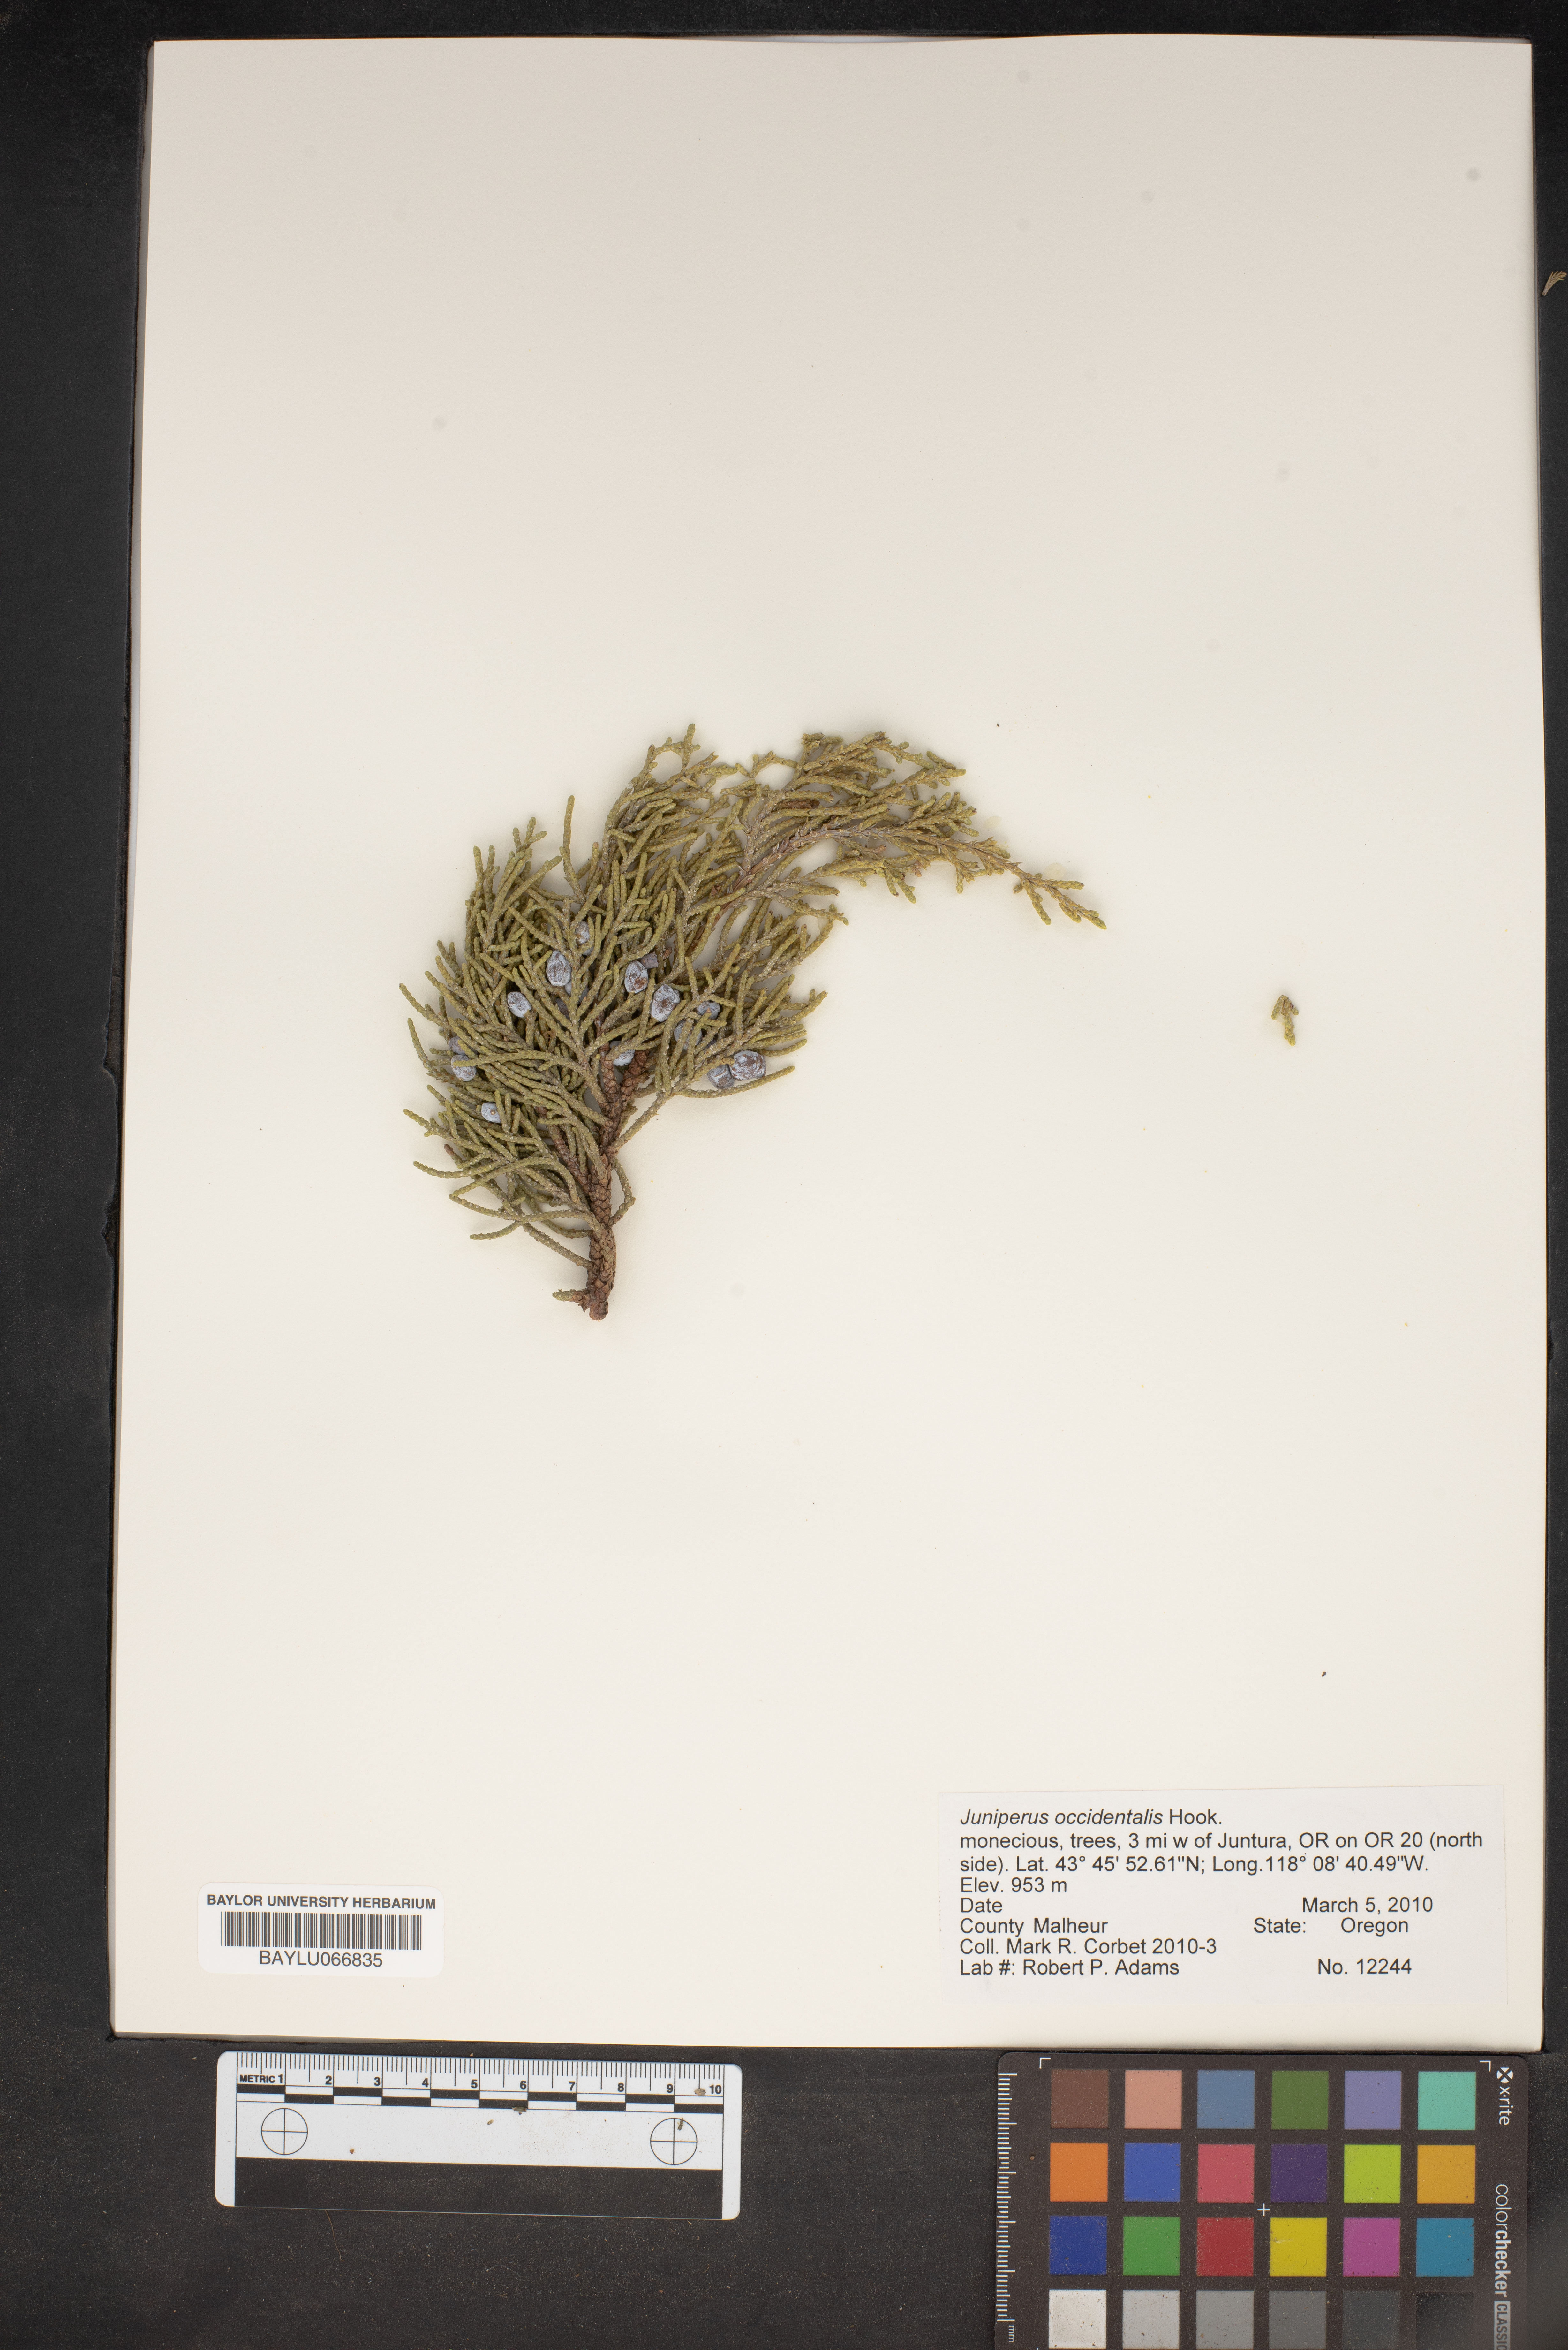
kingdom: Plantae
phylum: Tracheophyta
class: Pinopsida
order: Pinales
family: Cupressaceae
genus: Juniperus
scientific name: Juniperus occidentalis
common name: Western juniper
